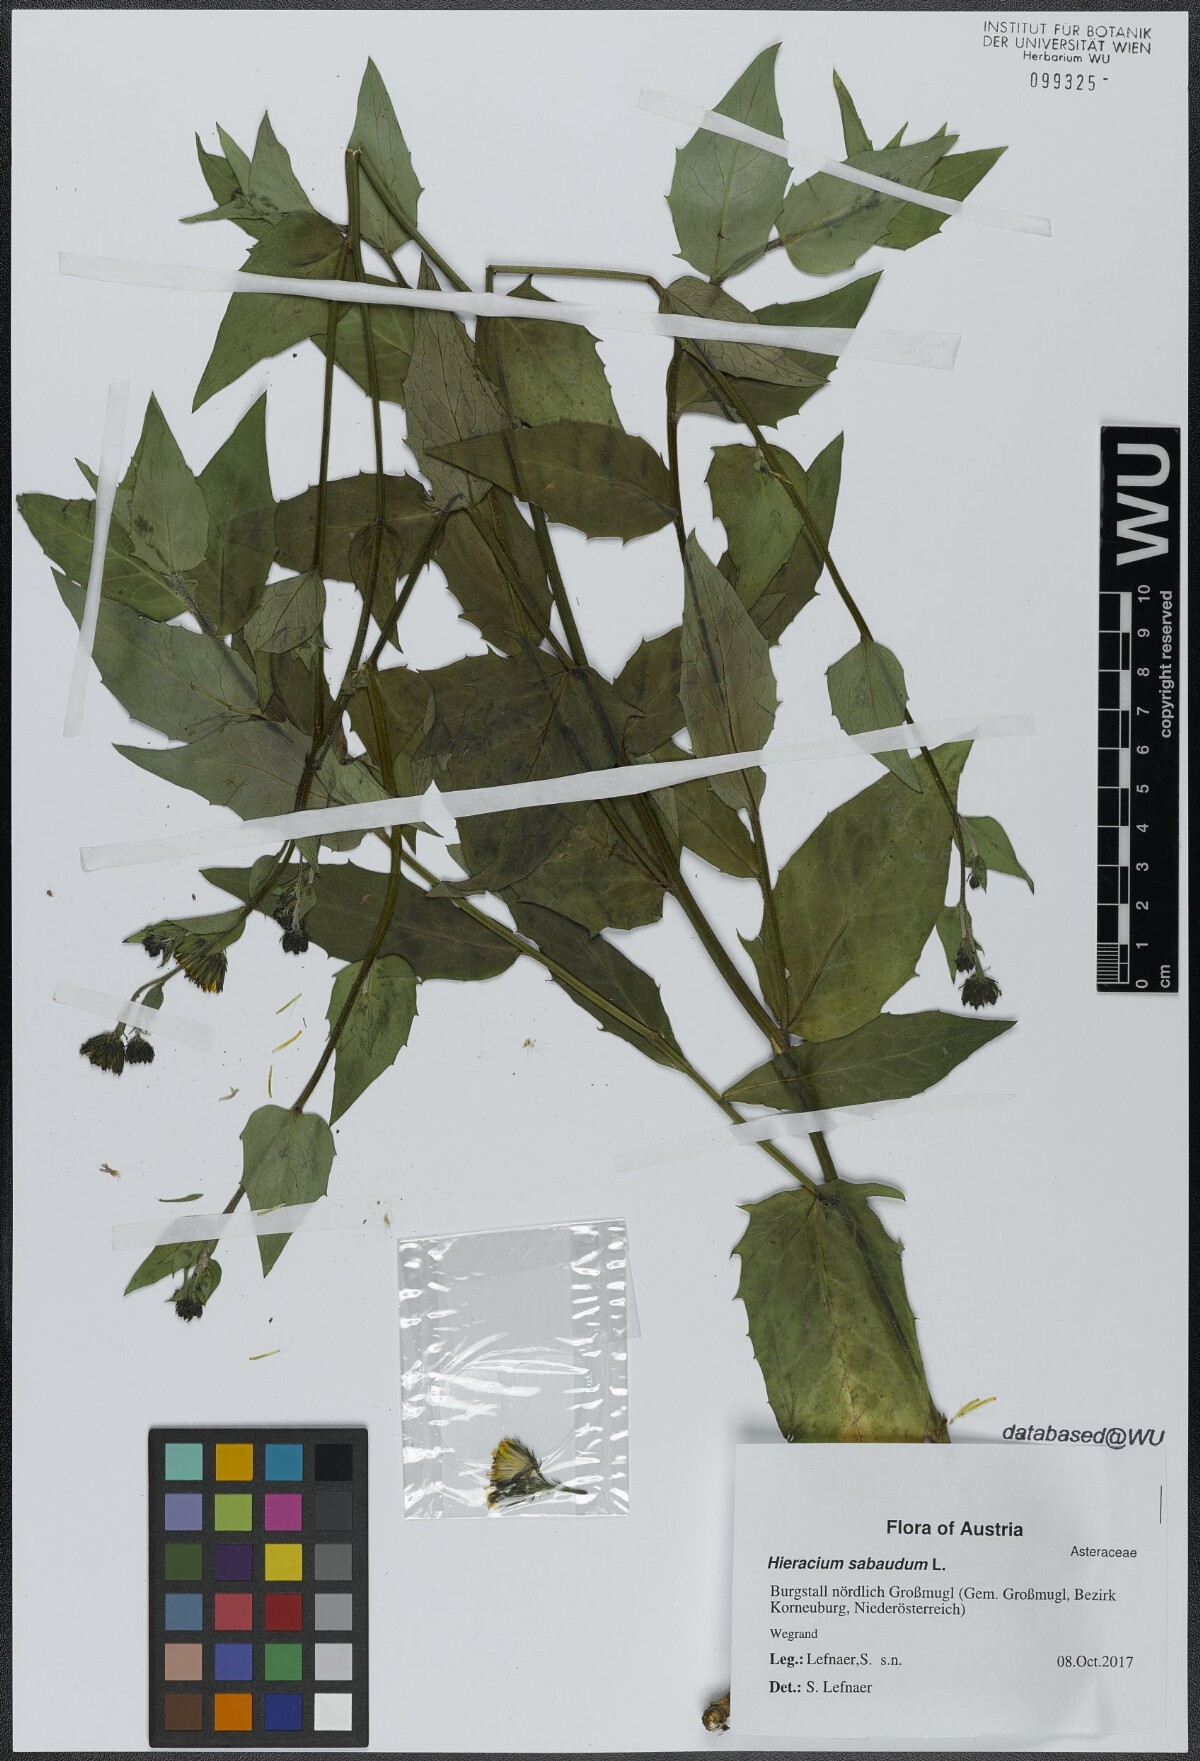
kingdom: Plantae
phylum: Tracheophyta
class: Magnoliopsida
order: Asterales
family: Asteraceae
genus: Hieracium
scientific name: Hieracium sabaudum
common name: New england hawkweed
